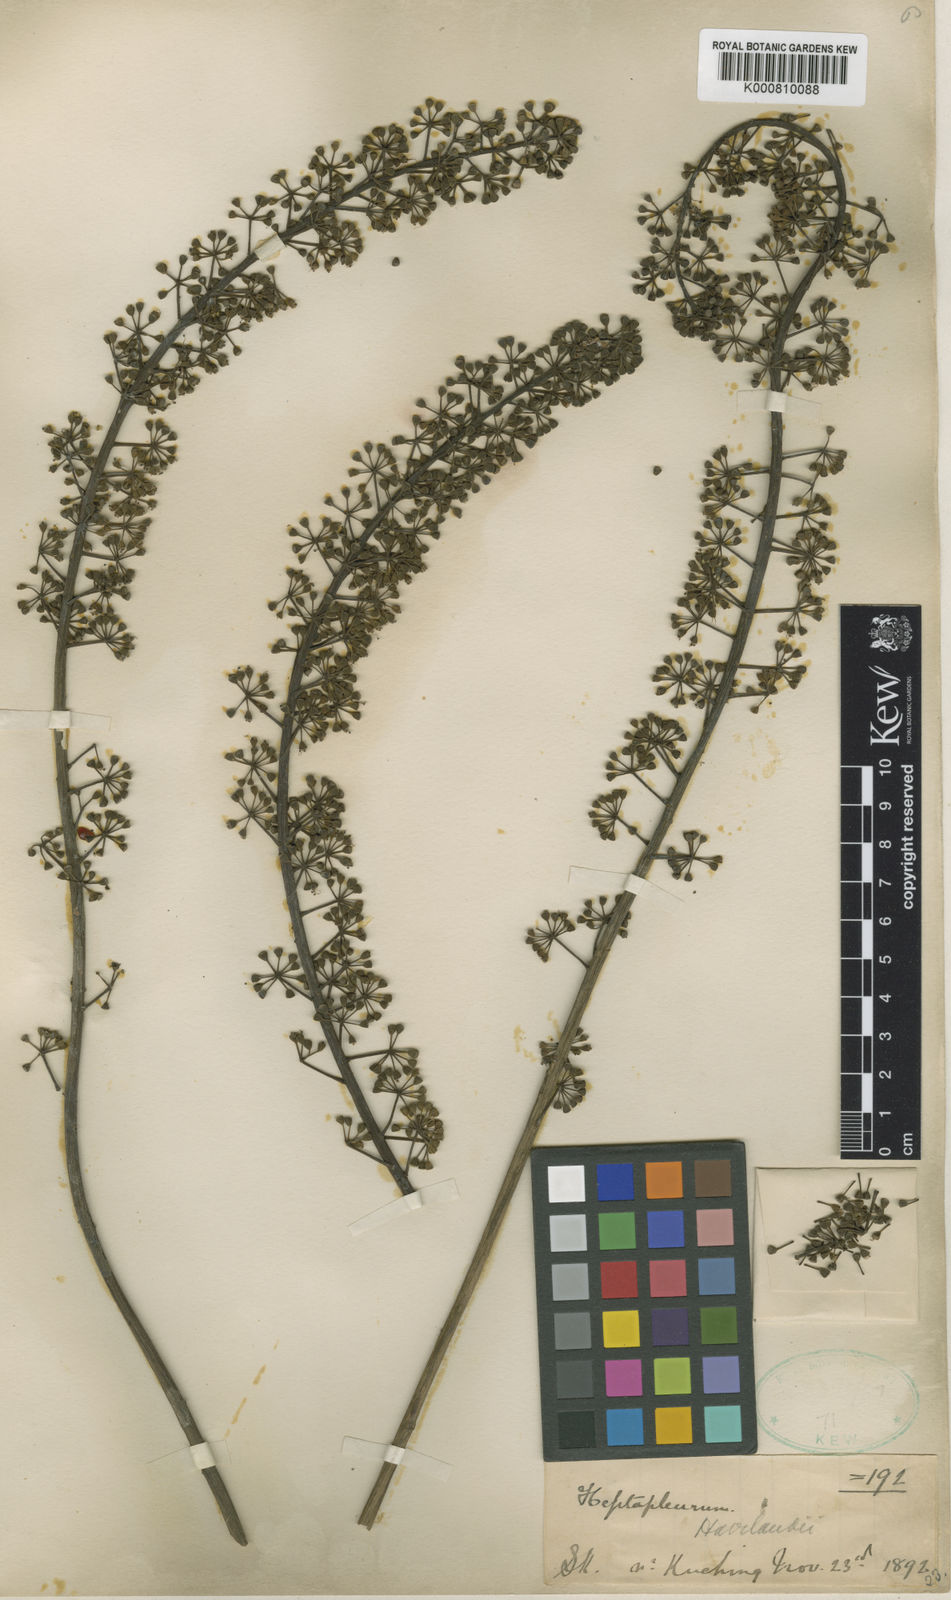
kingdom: Plantae
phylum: Tracheophyta
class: Magnoliopsida
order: Apiales
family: Araliaceae
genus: Heptapleurum
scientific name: Heptapleurum havilandii
